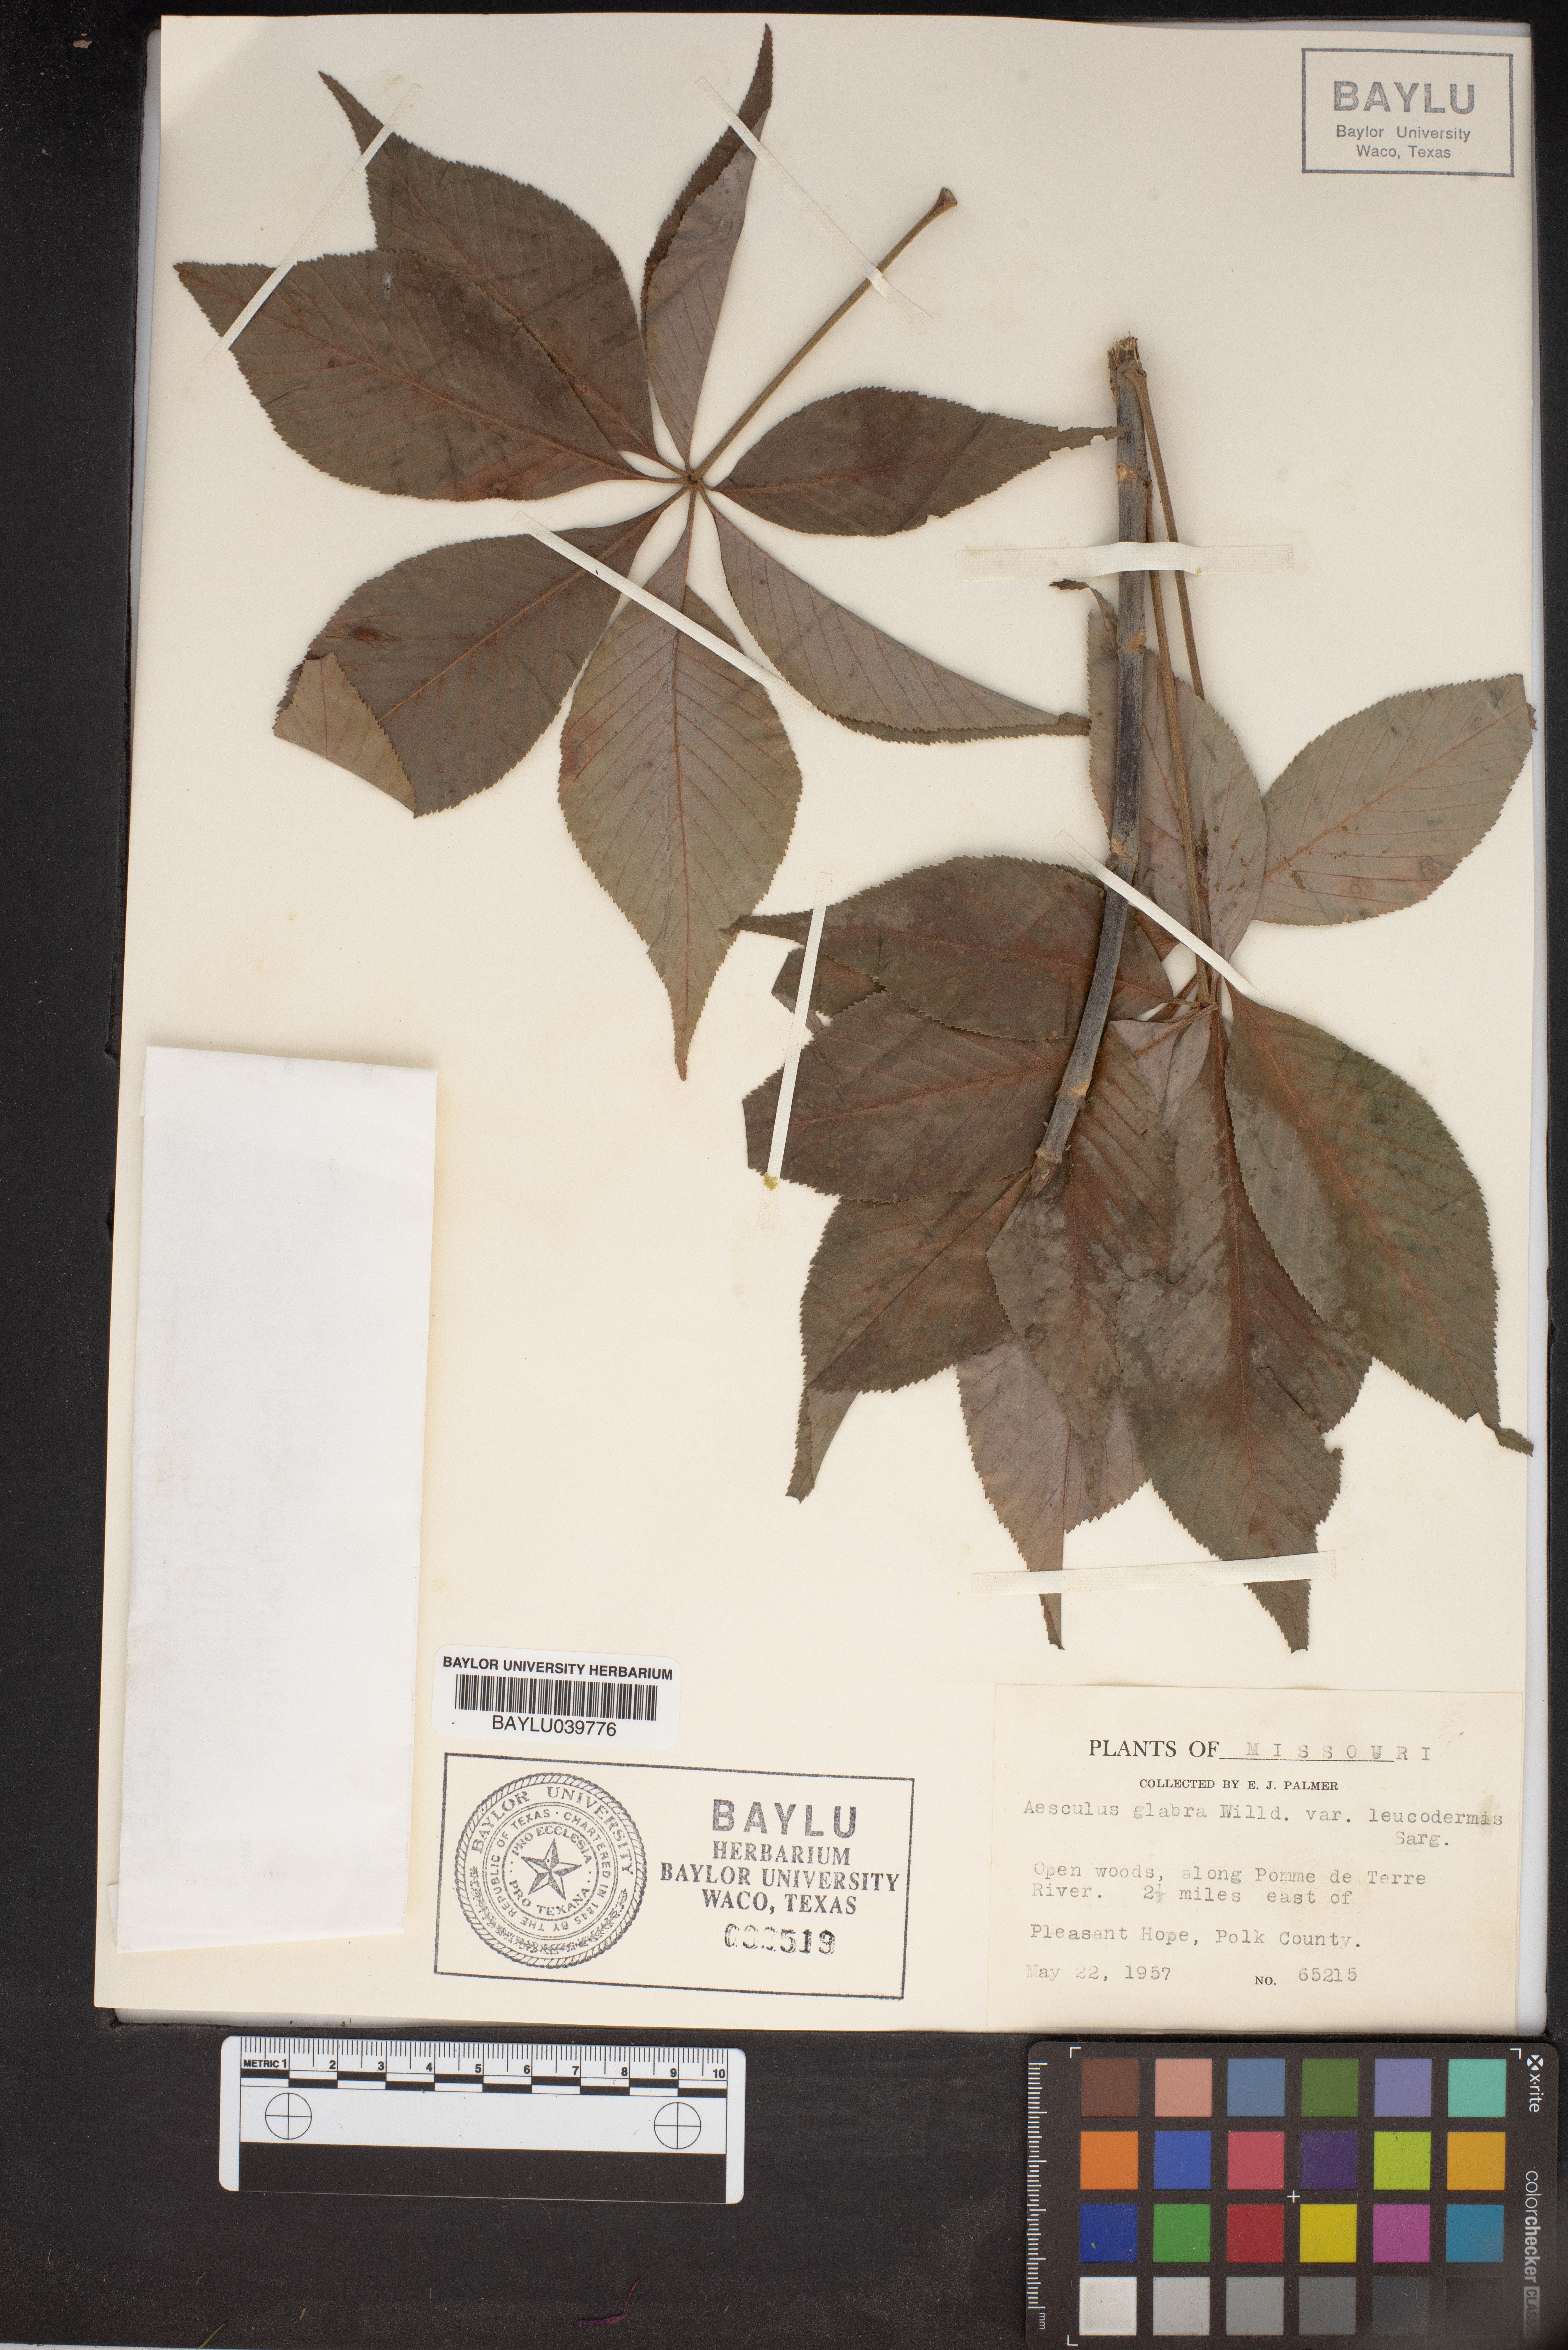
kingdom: Plantae
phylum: Tracheophyta
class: Magnoliopsida
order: Sapindales
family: Sapindaceae
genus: Aesculus
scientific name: Aesculus glabra
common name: Ohio buckeye
